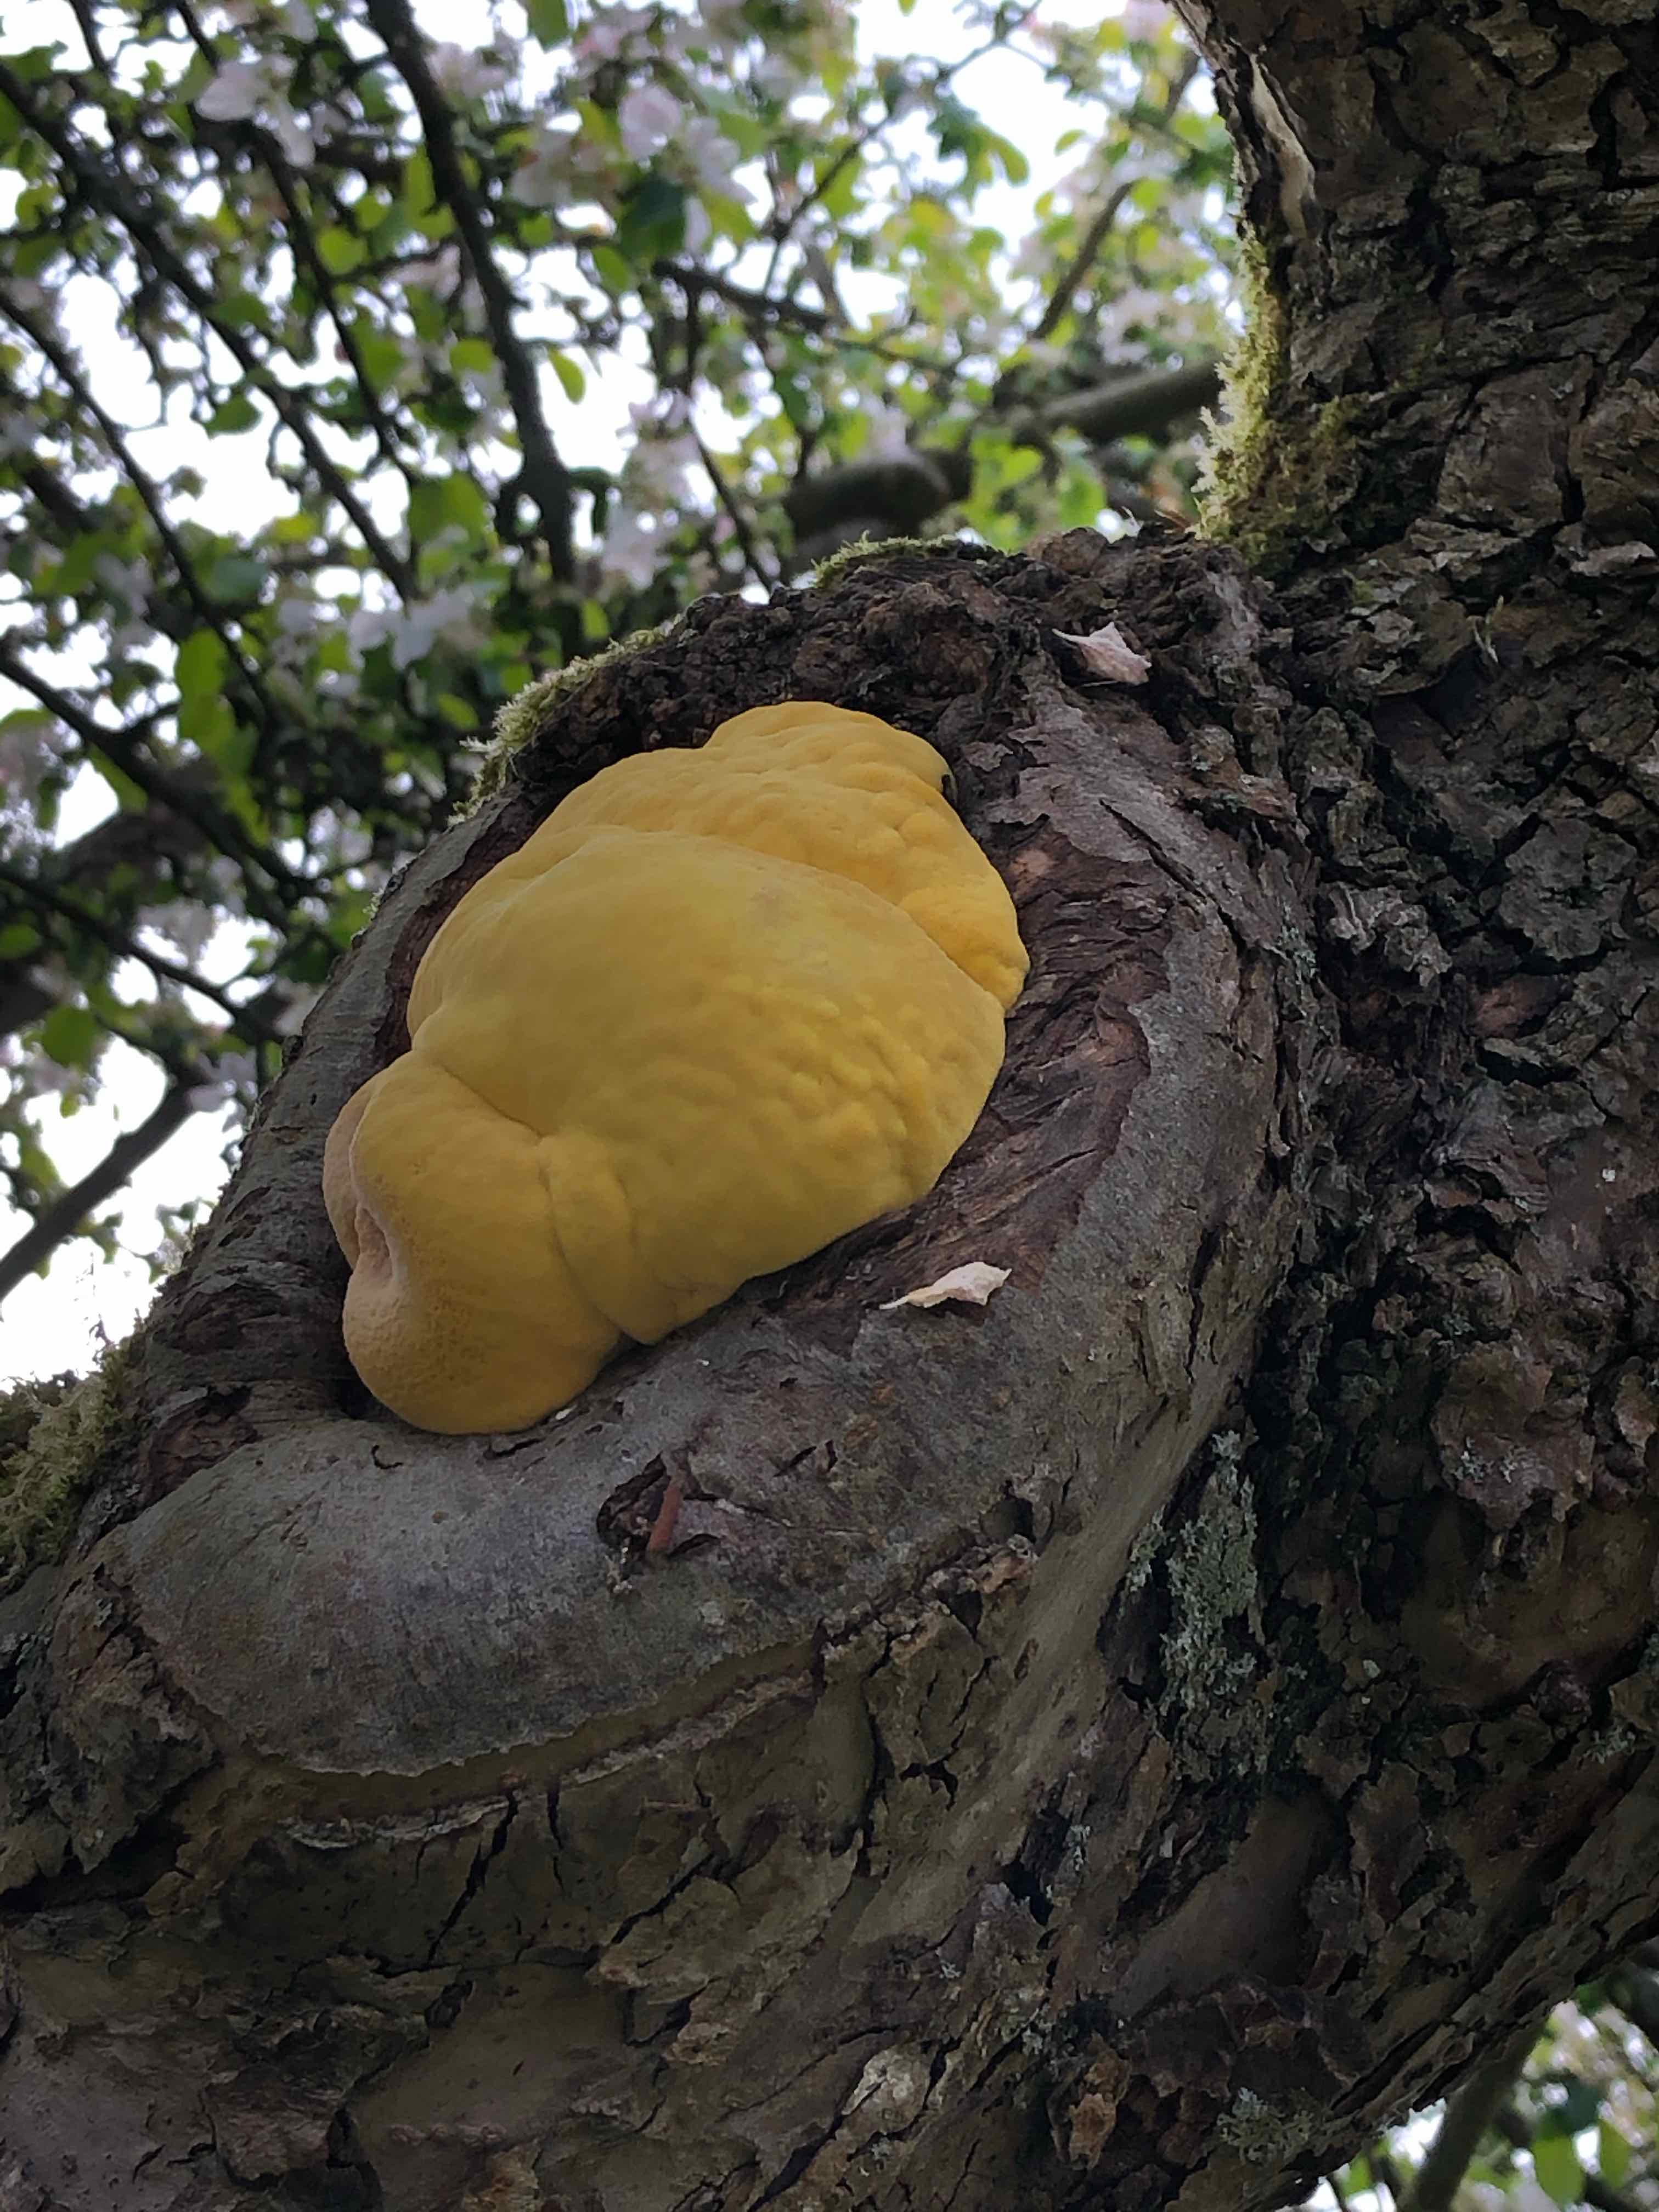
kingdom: Fungi
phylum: Basidiomycota
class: Agaricomycetes
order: Polyporales
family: Laetiporaceae
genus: Laetiporus
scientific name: Laetiporus sulphureus
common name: svovlporesvamp
